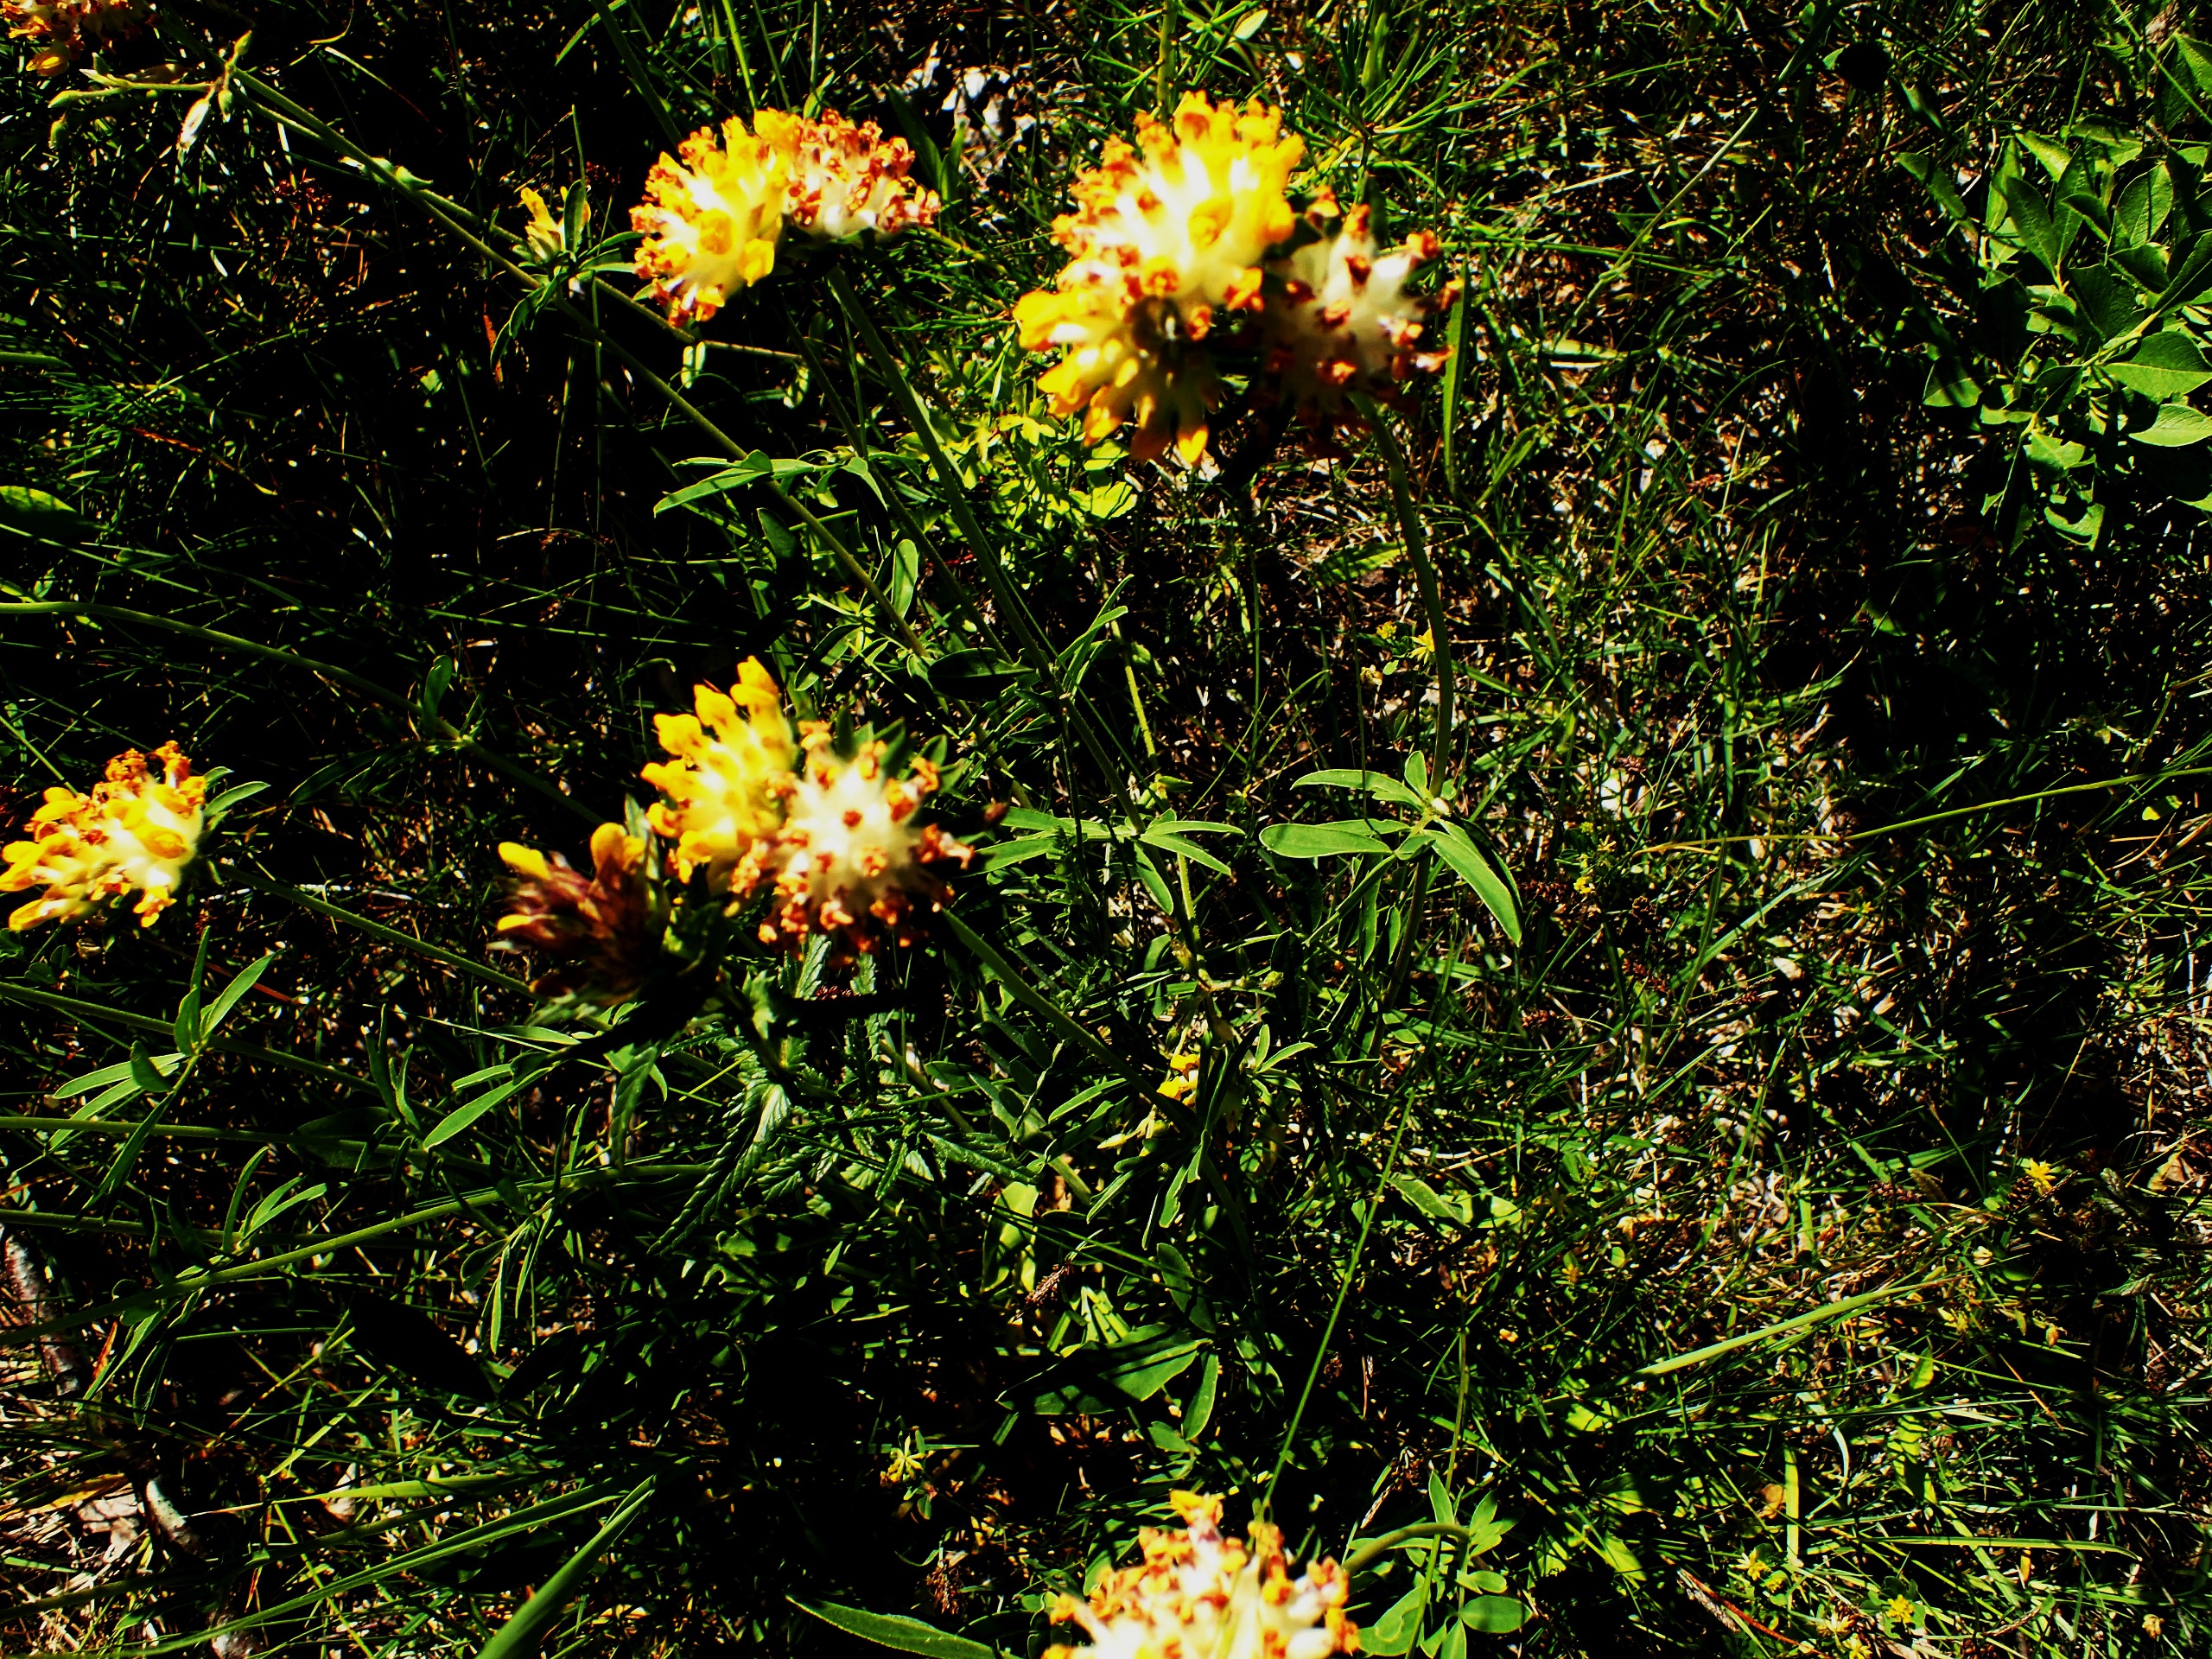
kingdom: Plantae
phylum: Tracheophyta
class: Magnoliopsida
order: Fabales
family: Fabaceae
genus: Anthyllis
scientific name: Anthyllis vulneraria
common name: Rundbælg
